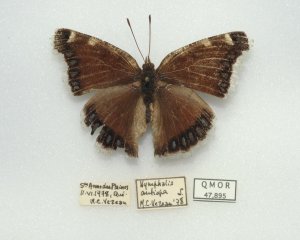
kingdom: Animalia
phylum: Arthropoda
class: Insecta
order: Lepidoptera
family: Nymphalidae
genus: Nymphalis
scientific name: Nymphalis antiopa
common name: Mourning Cloak
